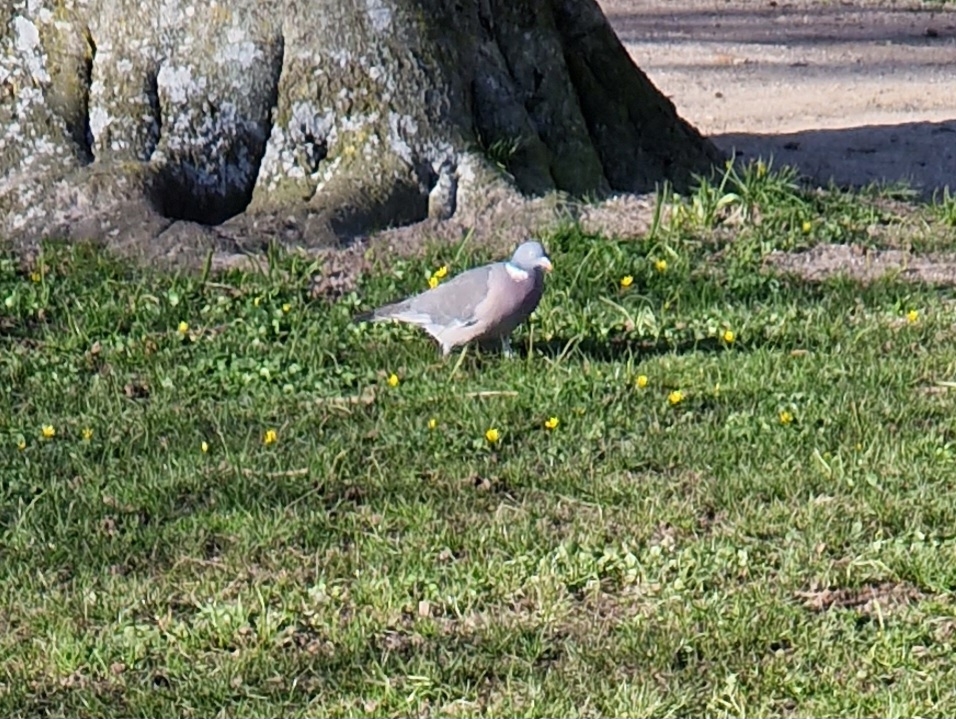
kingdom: Animalia
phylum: Chordata
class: Aves
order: Columbiformes
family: Columbidae
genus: Columba
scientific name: Columba palumbus
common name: Ringdue
